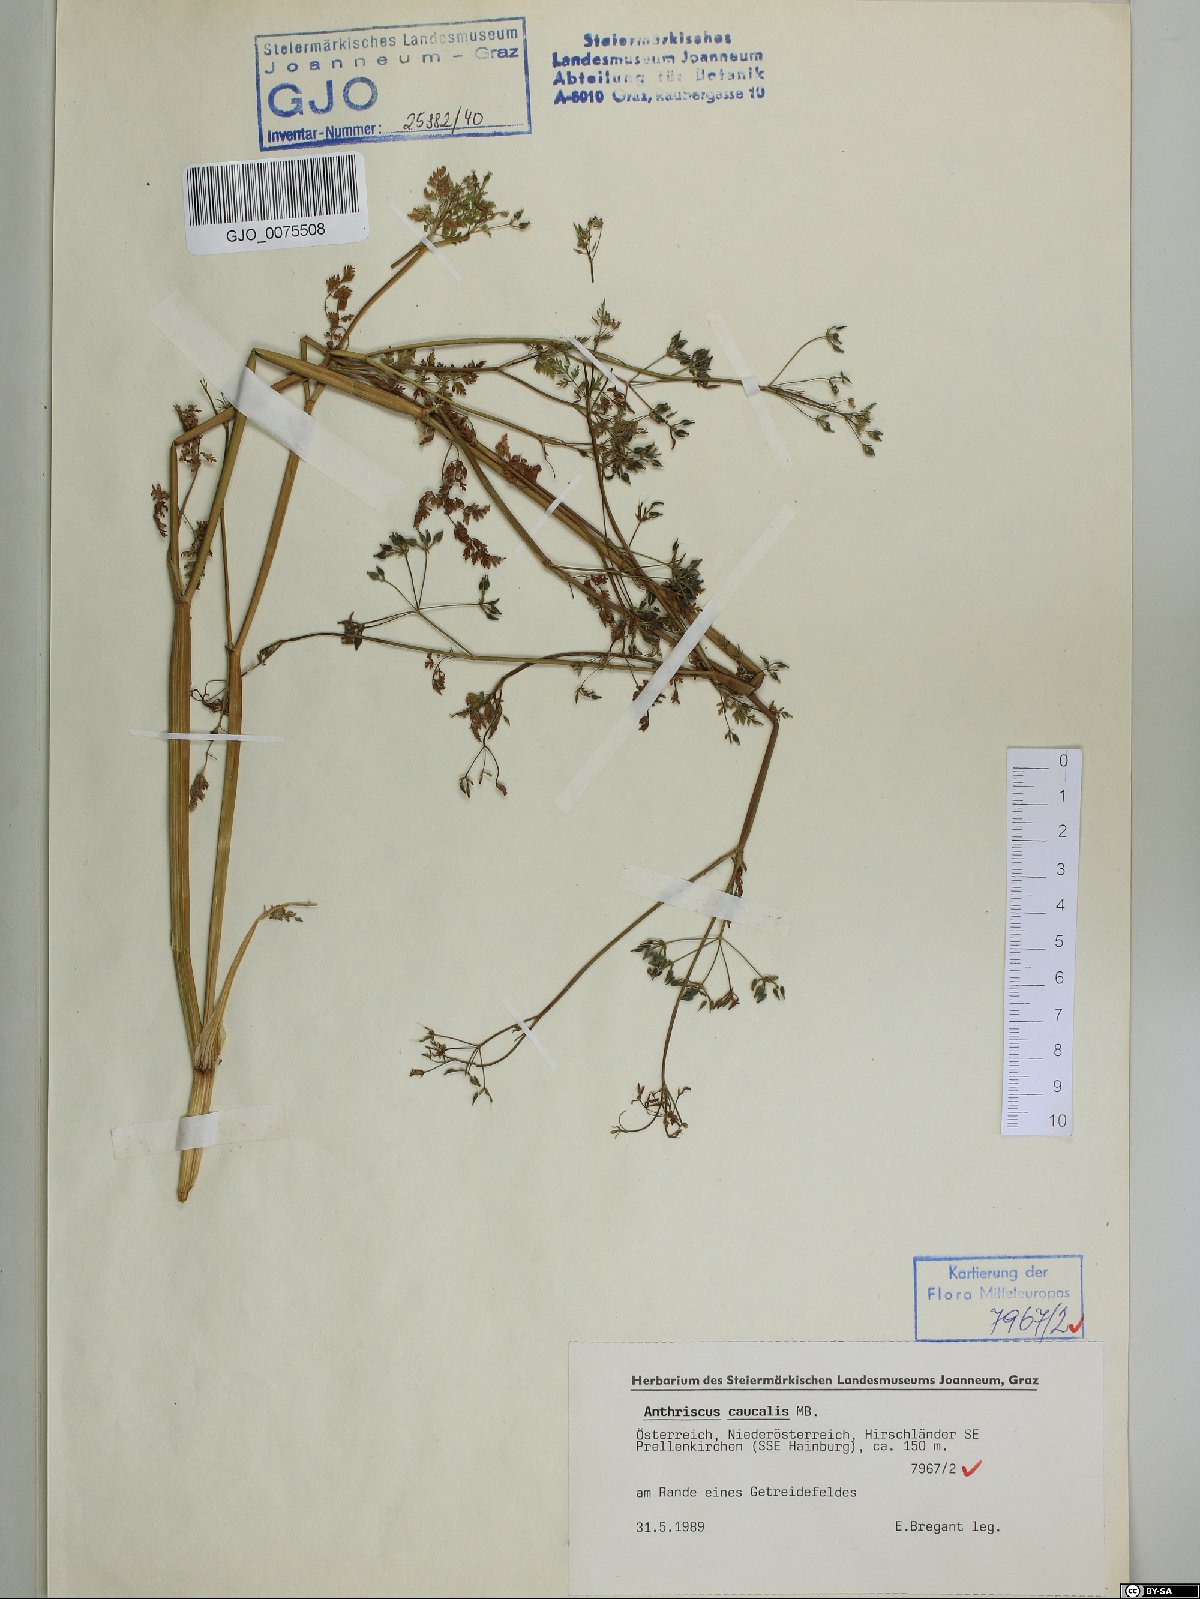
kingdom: Plantae
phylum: Tracheophyta
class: Magnoliopsida
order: Apiales
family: Apiaceae
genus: Anthriscus
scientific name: Anthriscus caucalis
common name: Bur chervil
